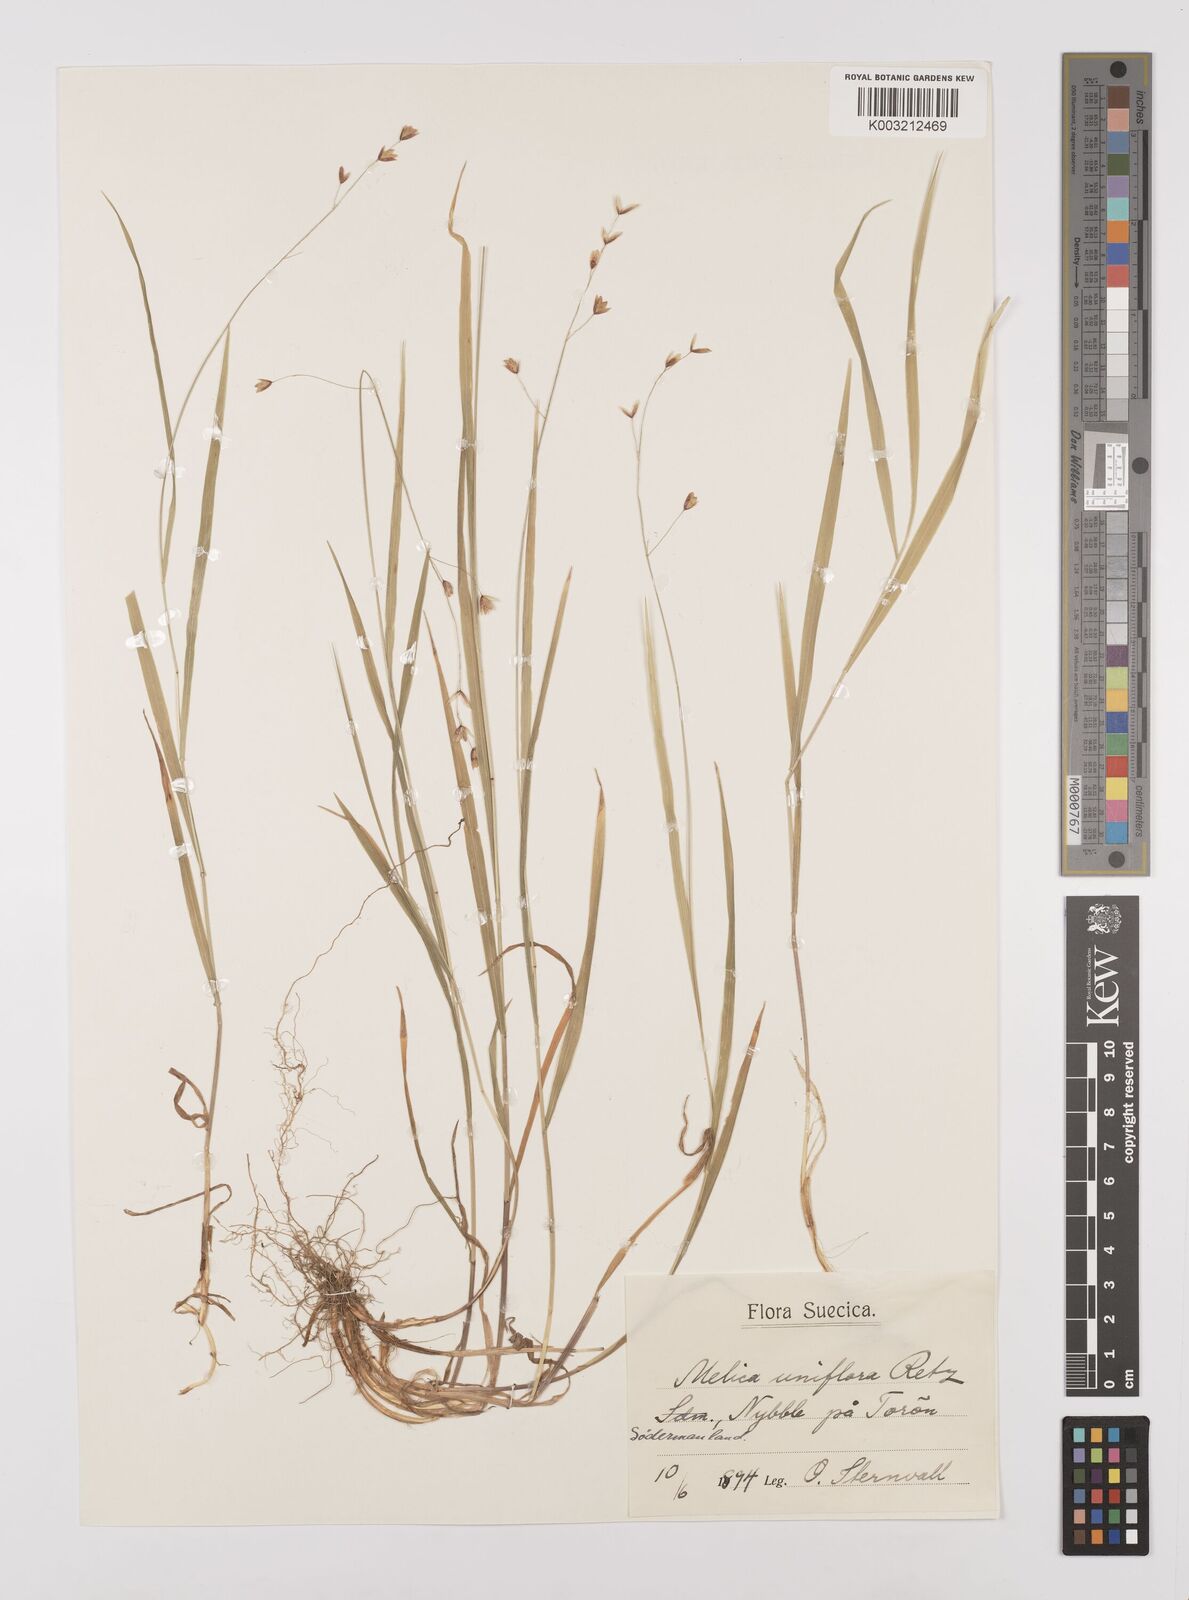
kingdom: Plantae
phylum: Tracheophyta
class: Liliopsida
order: Poales
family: Poaceae
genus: Melica
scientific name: Melica uniflora
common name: Wood melick
